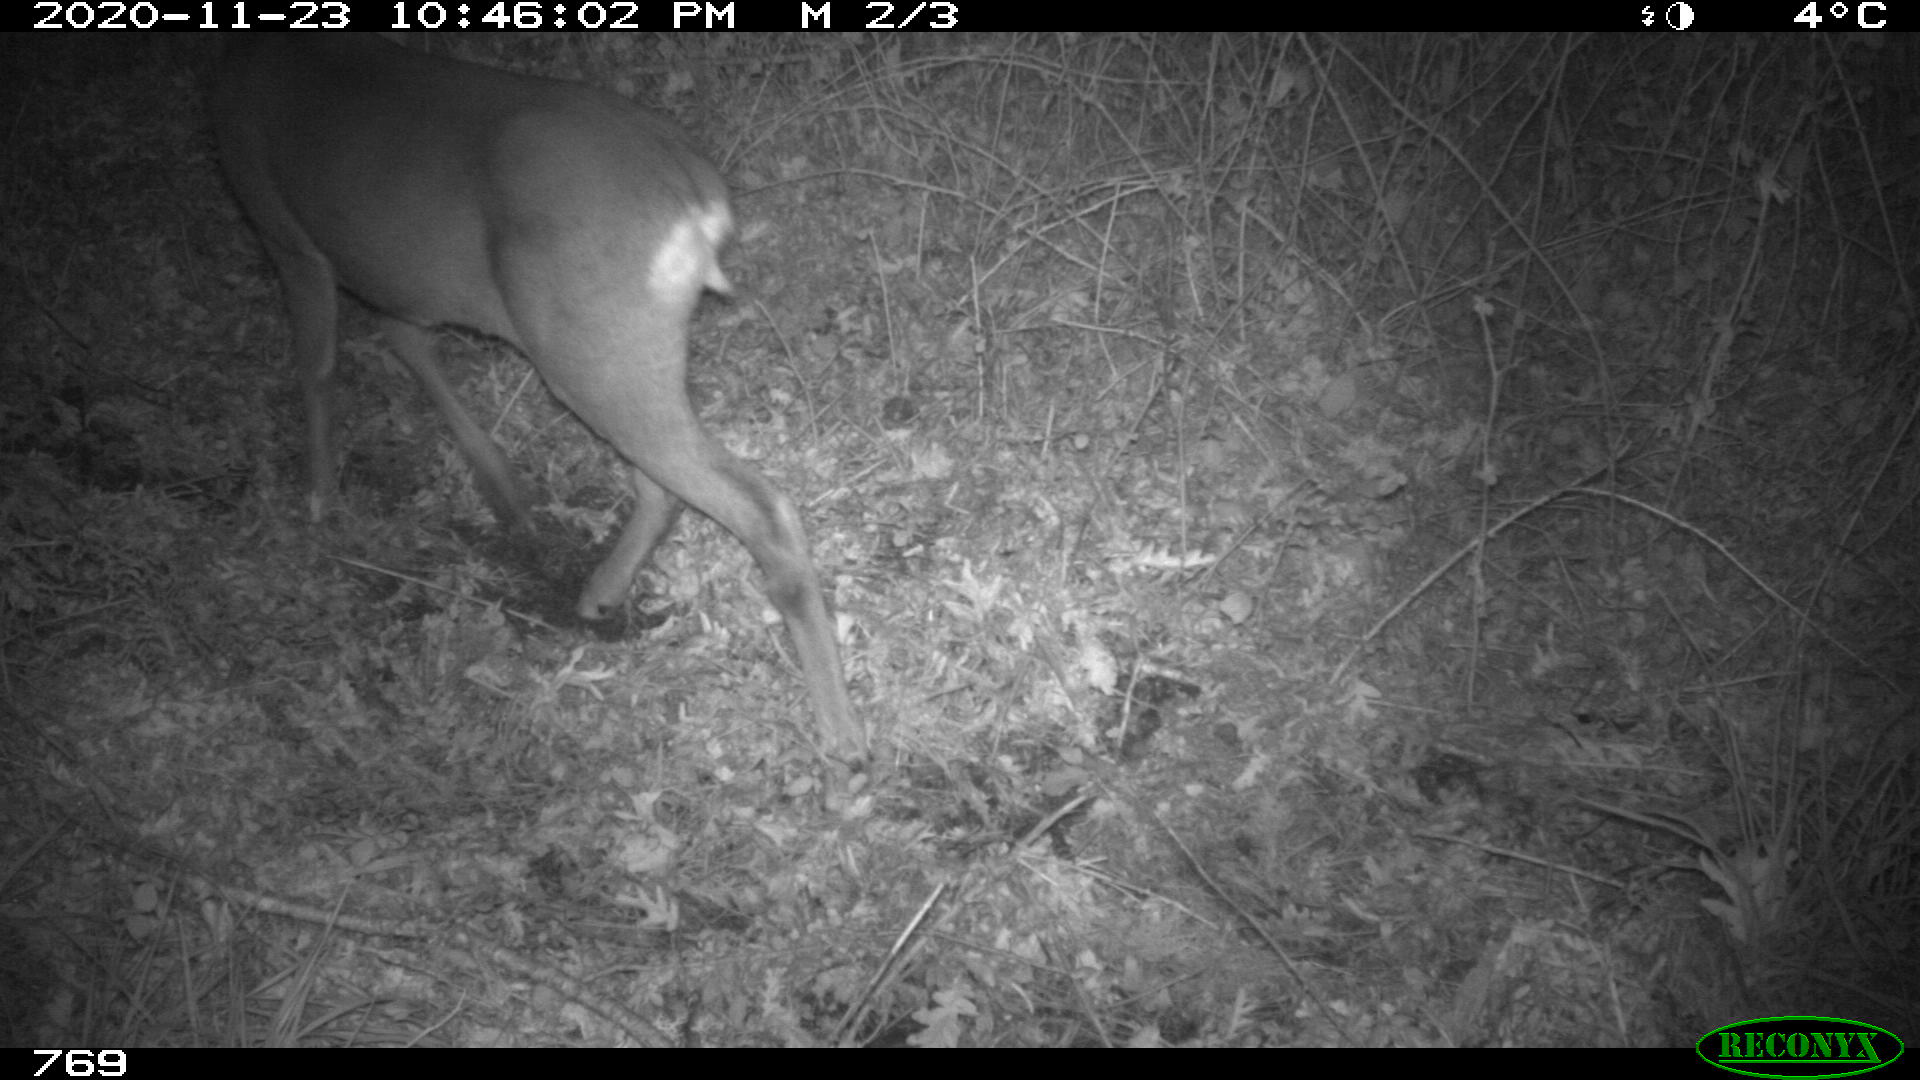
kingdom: Animalia
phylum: Chordata
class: Mammalia
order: Artiodactyla
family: Cervidae
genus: Capreolus
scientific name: Capreolus capreolus
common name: Western roe deer
